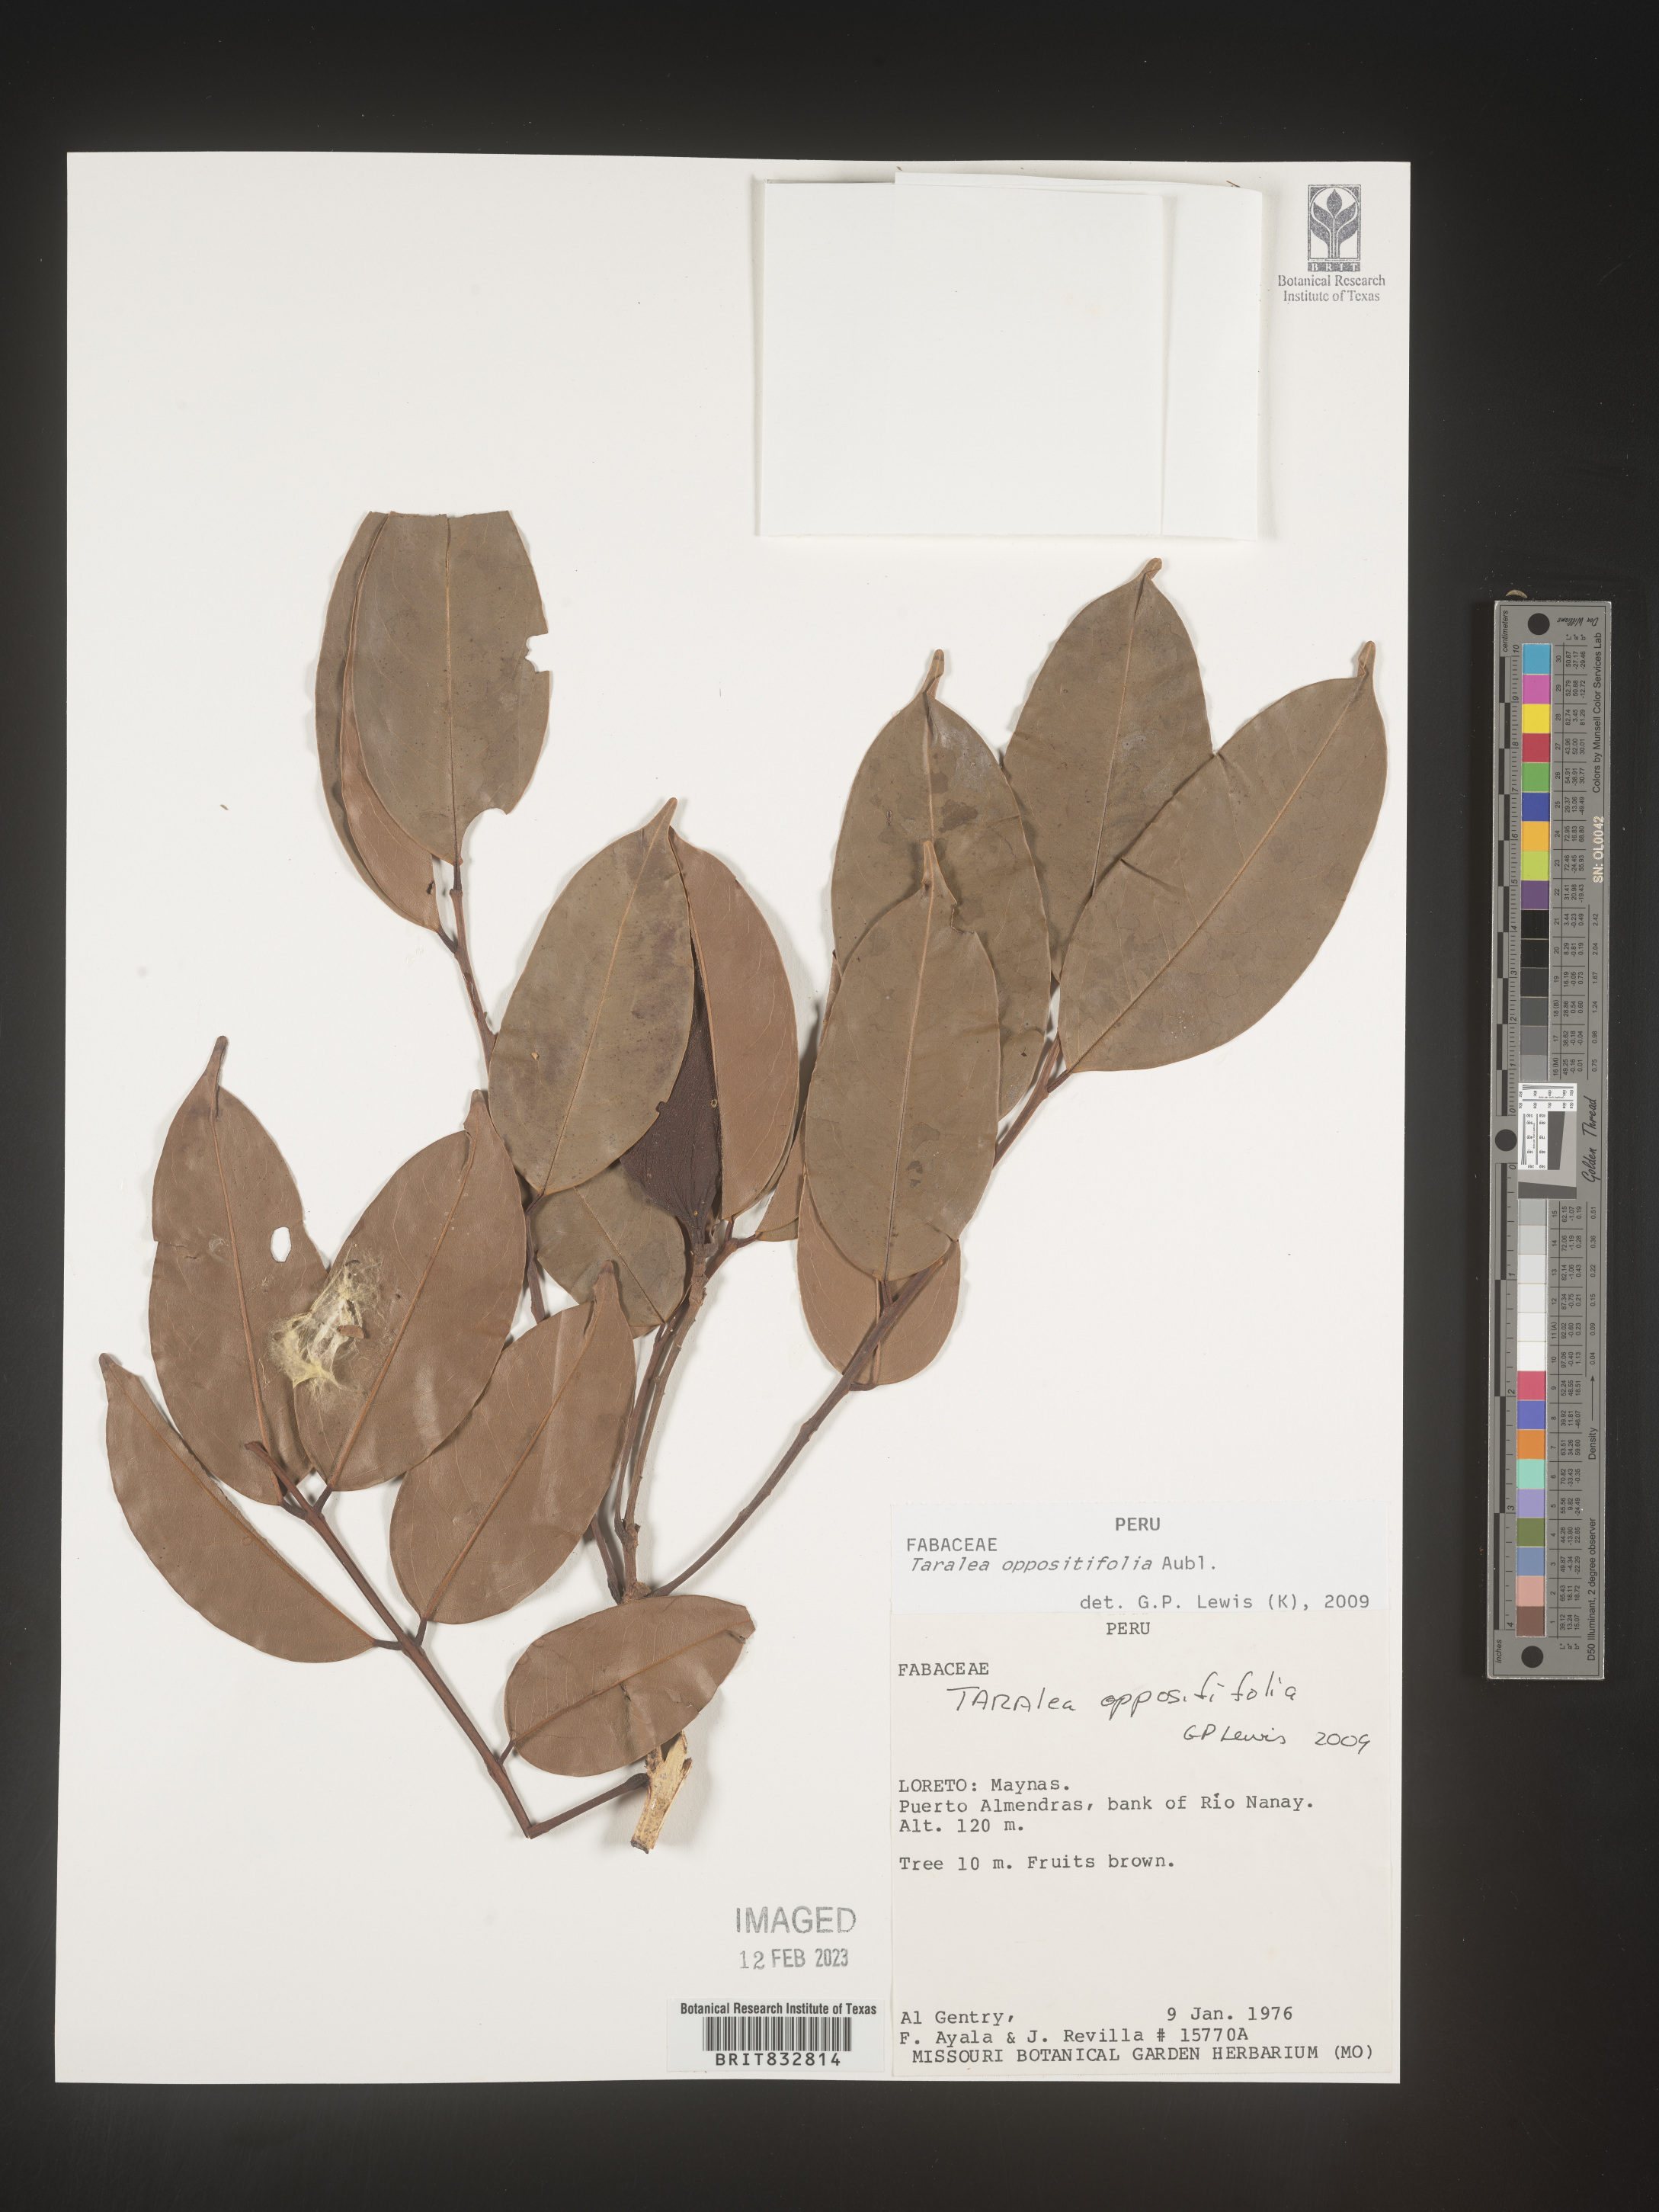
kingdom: Plantae
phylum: Tracheophyta
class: Magnoliopsida
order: Fabales
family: Fabaceae
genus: Taralea
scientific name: Taralea
